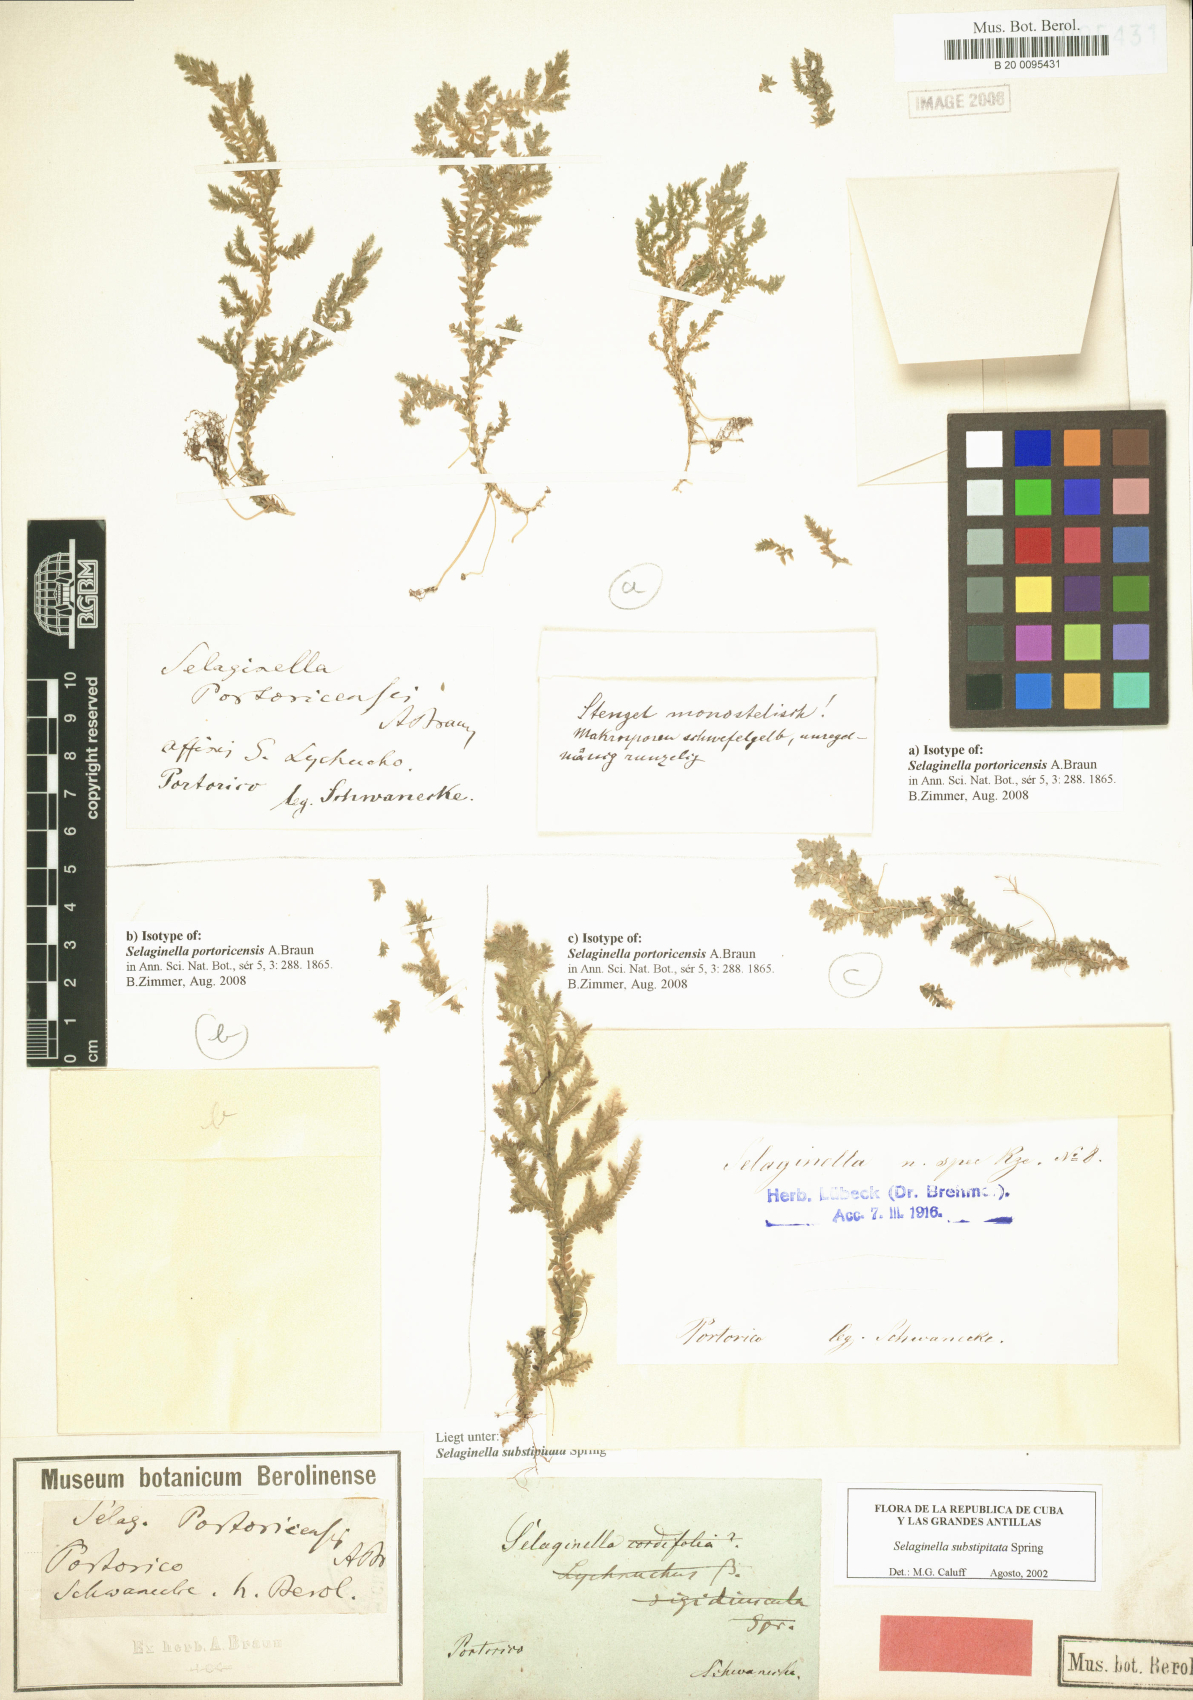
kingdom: Plantae
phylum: Tracheophyta
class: Lycopodiopsida
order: Selaginellales
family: Selaginellaceae
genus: Selaginella
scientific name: Selaginella substipitata
